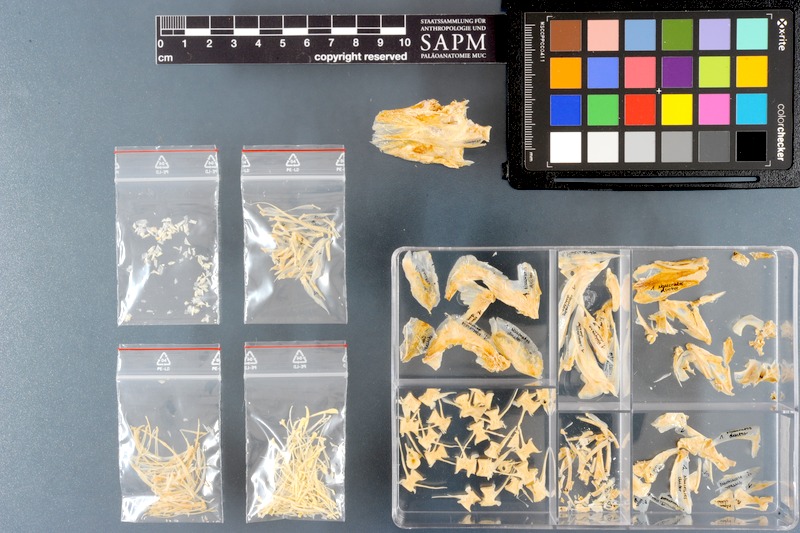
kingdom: Animalia
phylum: Chordata
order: Perciformes
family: Carangidae
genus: Naucrates
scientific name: Naucrates ductor
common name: Pilotfish
